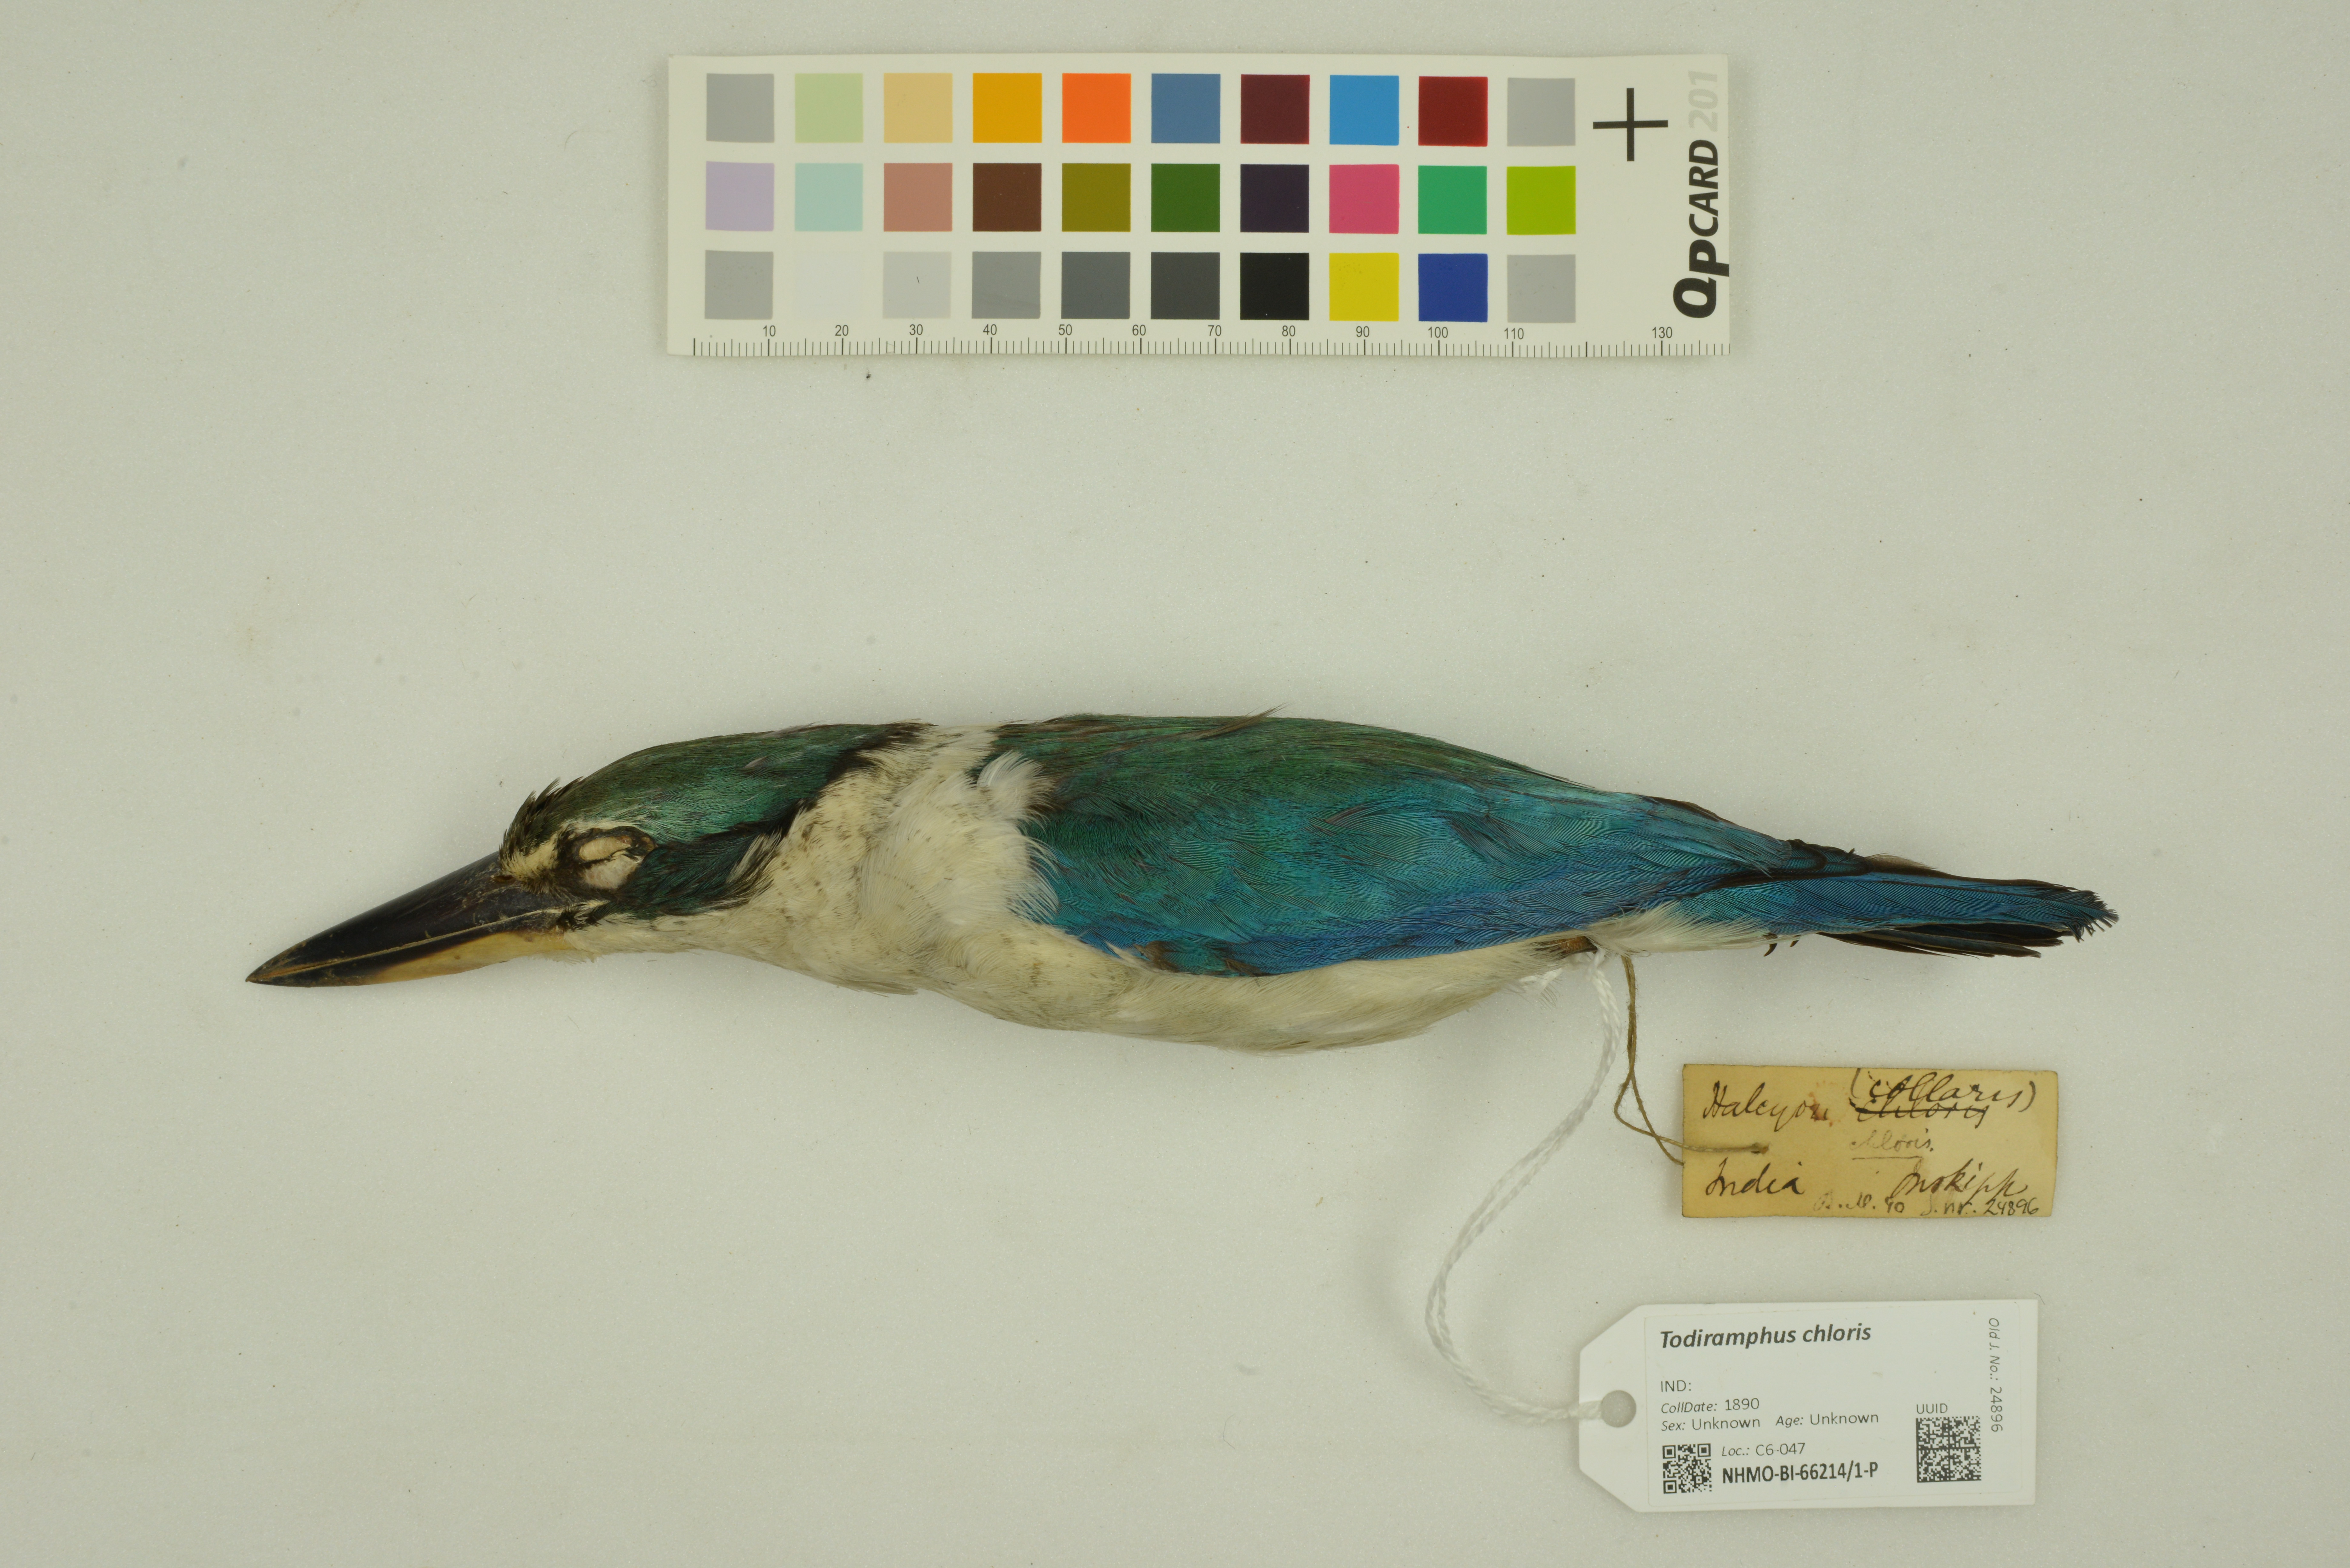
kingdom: Animalia
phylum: Chordata
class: Aves
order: Coraciiformes
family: Alcedinidae
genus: Todiramphus
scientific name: Todiramphus chloris
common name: Collared kingfisher
